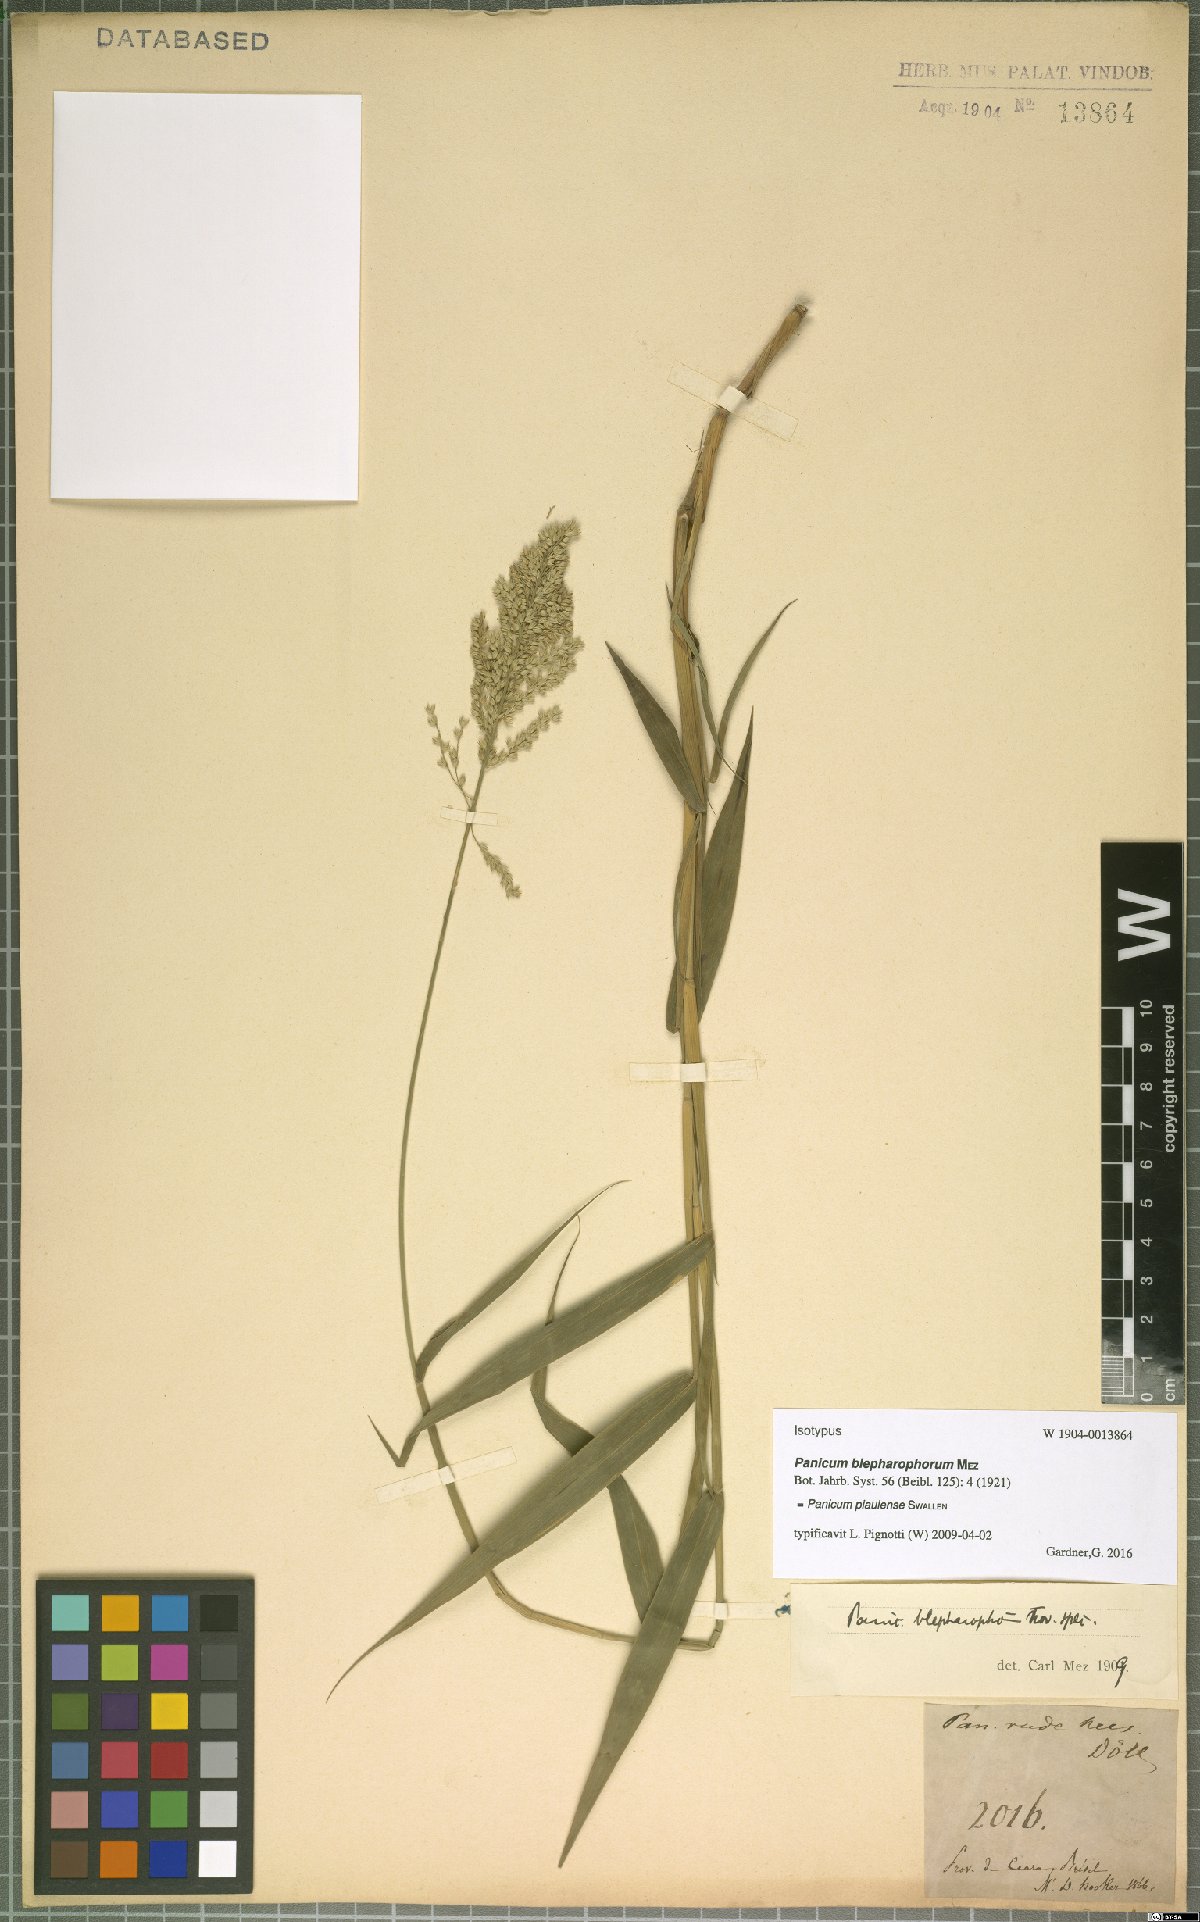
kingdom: Plantae
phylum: Tracheophyta
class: Liliopsida
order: Poales
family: Poaceae
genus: Ocellochloa
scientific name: Ocellochloa gardneri
